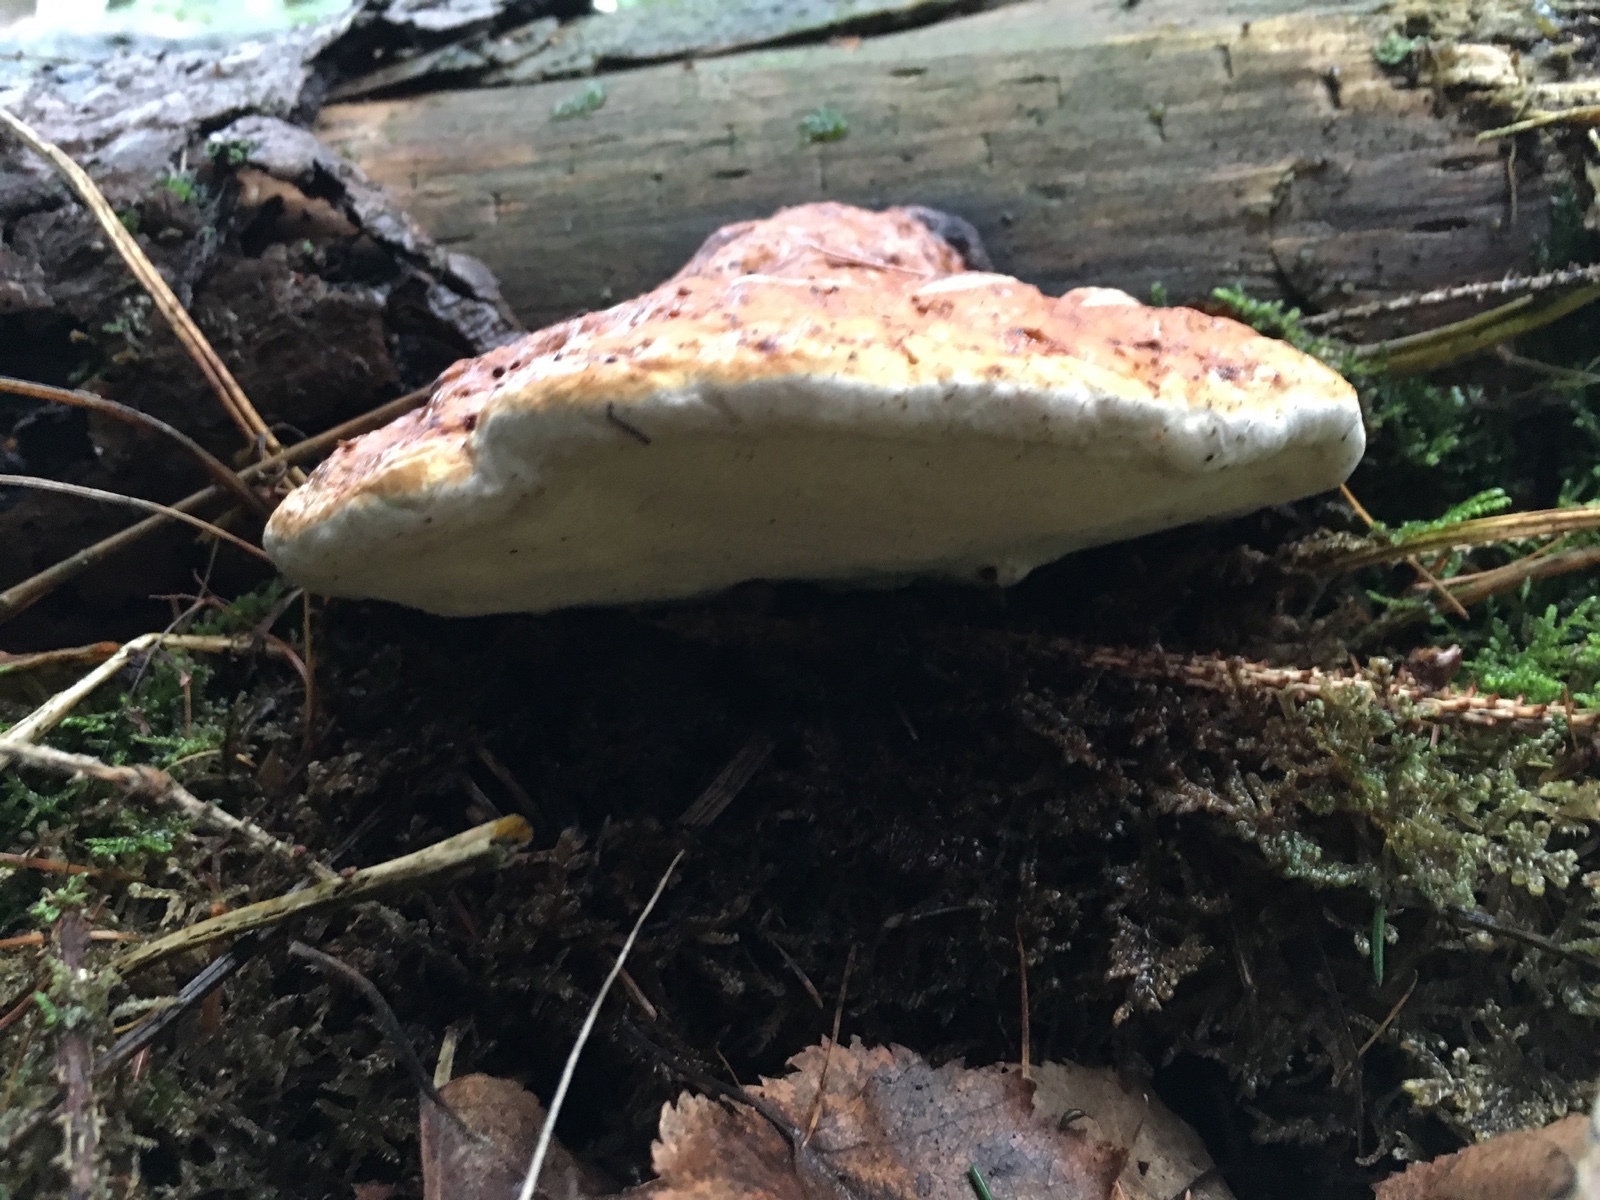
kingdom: Fungi
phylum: Basidiomycota
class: Agaricomycetes
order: Polyporales
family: Fomitopsidaceae
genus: Fomitopsis
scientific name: Fomitopsis pinicola
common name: randbæltet hovporesvamp
